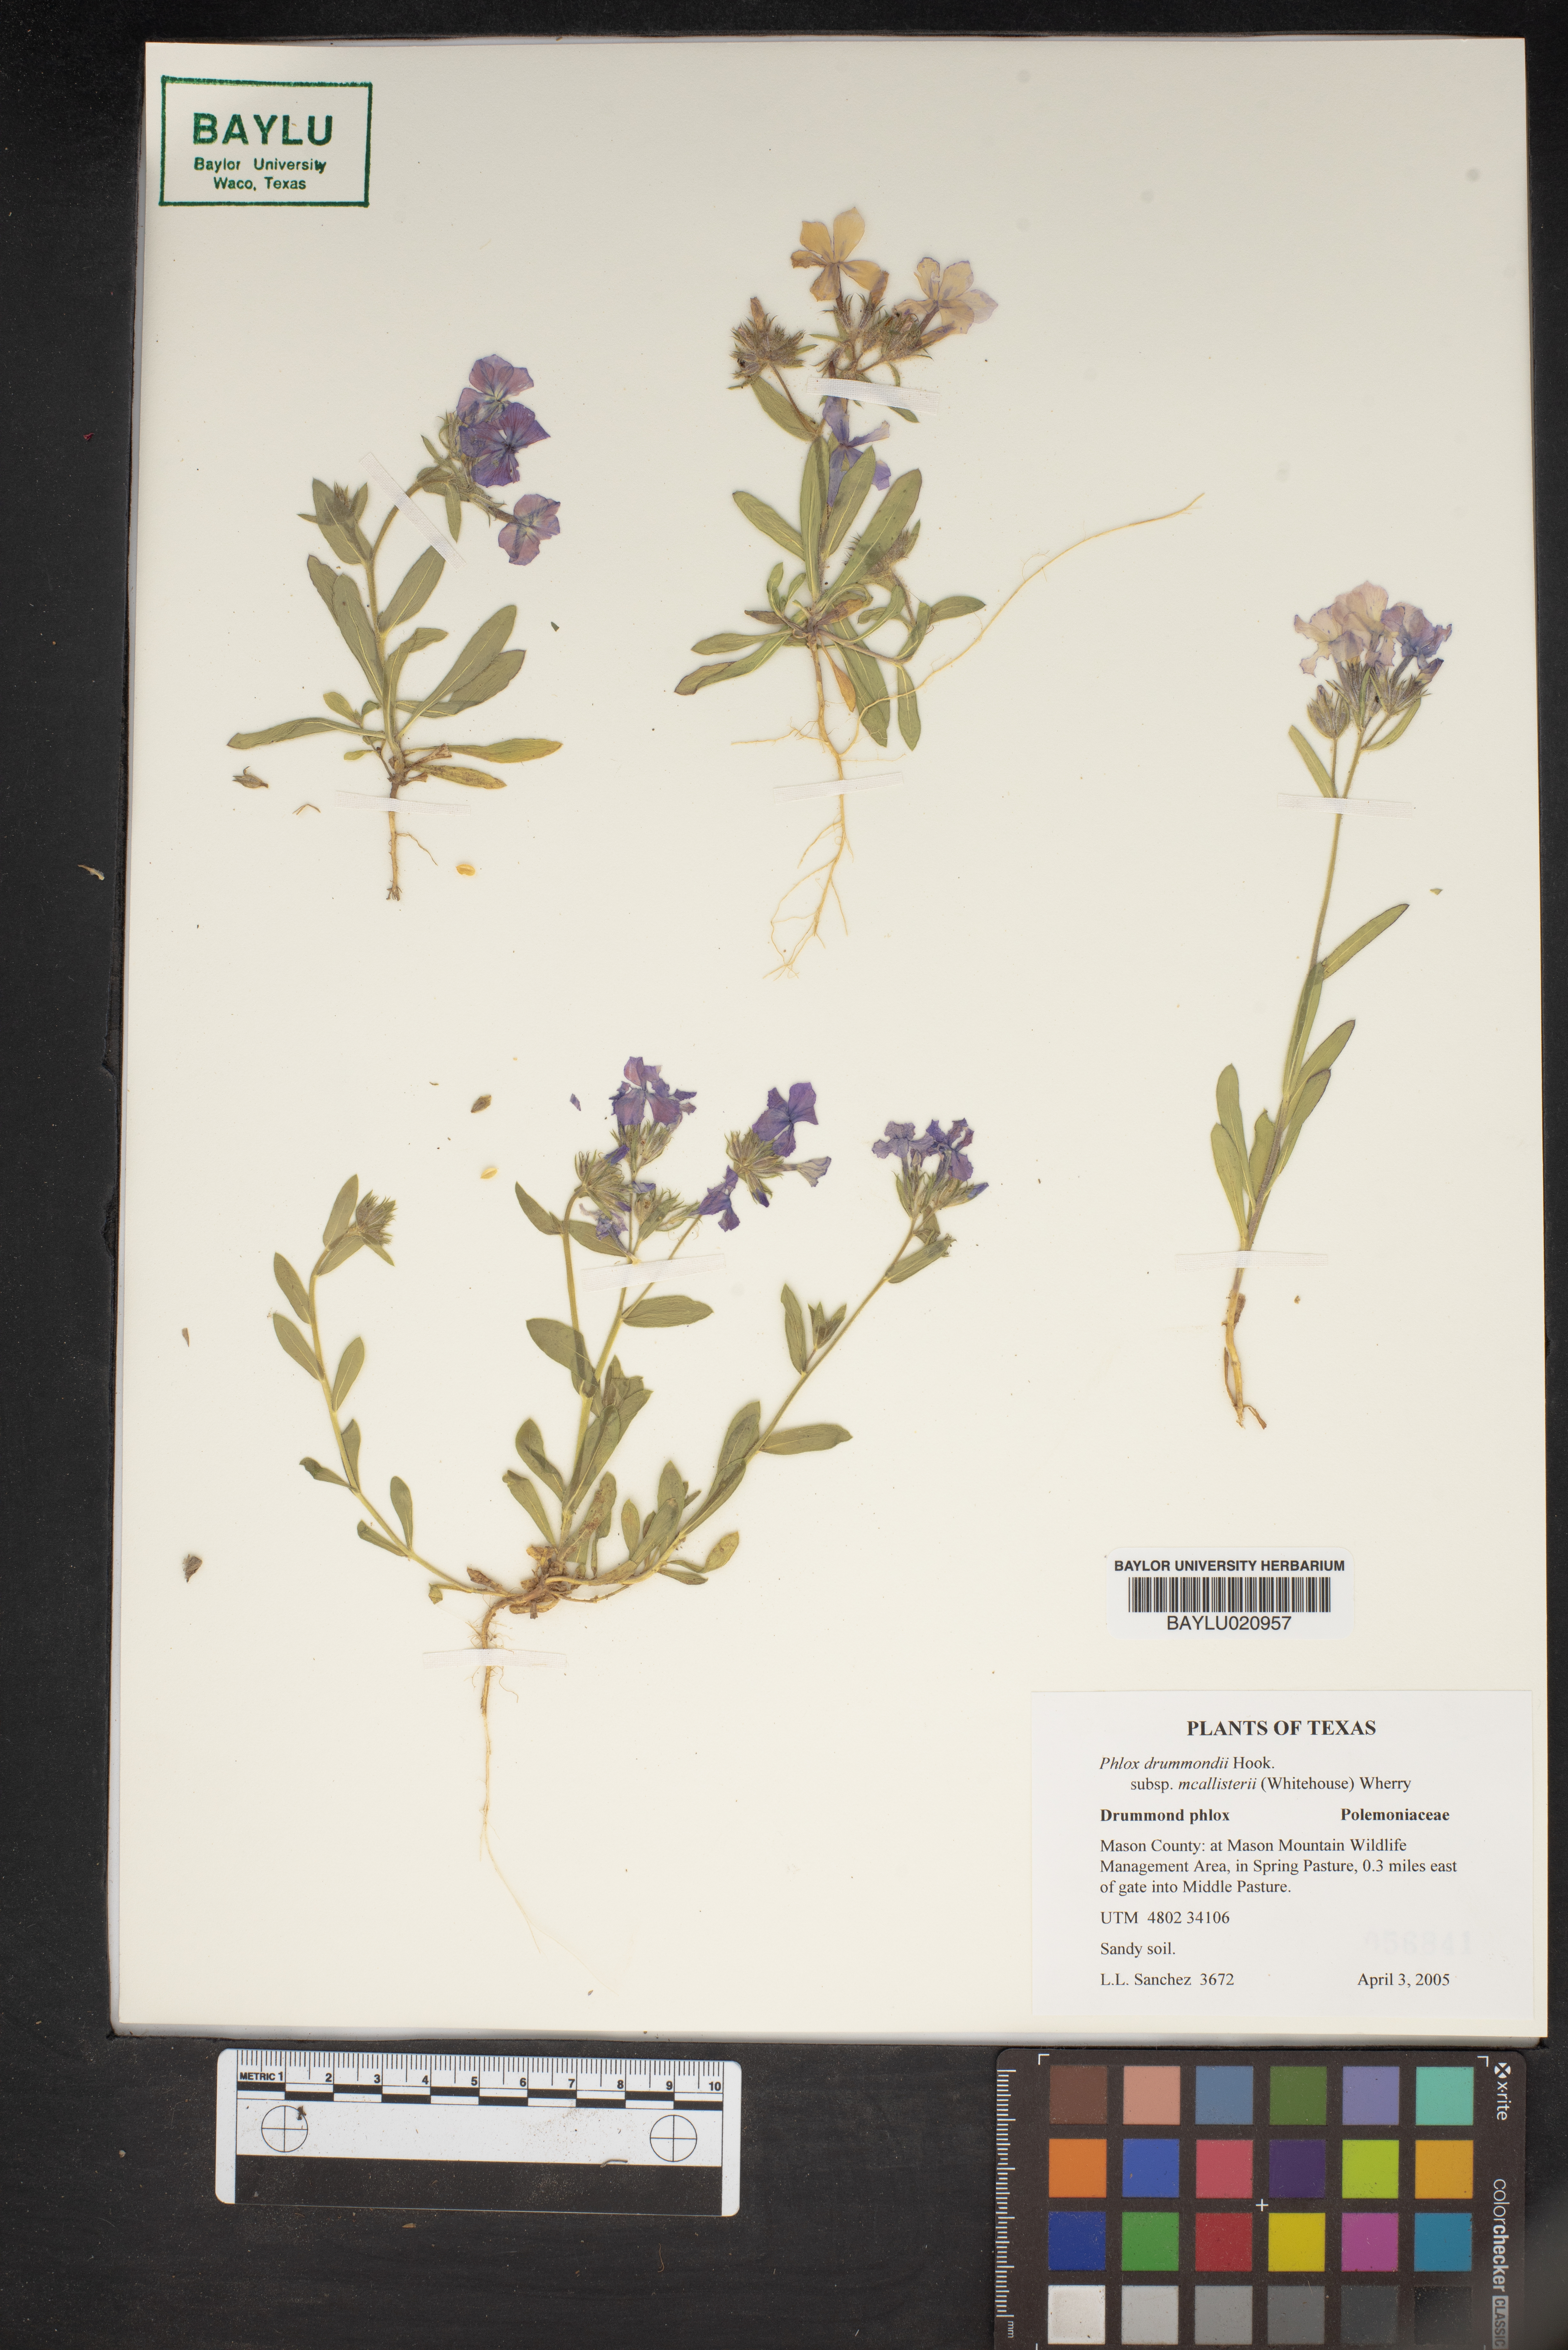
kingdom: Plantae
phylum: Tracheophyta
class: Magnoliopsida
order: Ericales
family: Polemoniaceae
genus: Phlox
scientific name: Phlox drummondii
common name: Drummond's phlox
